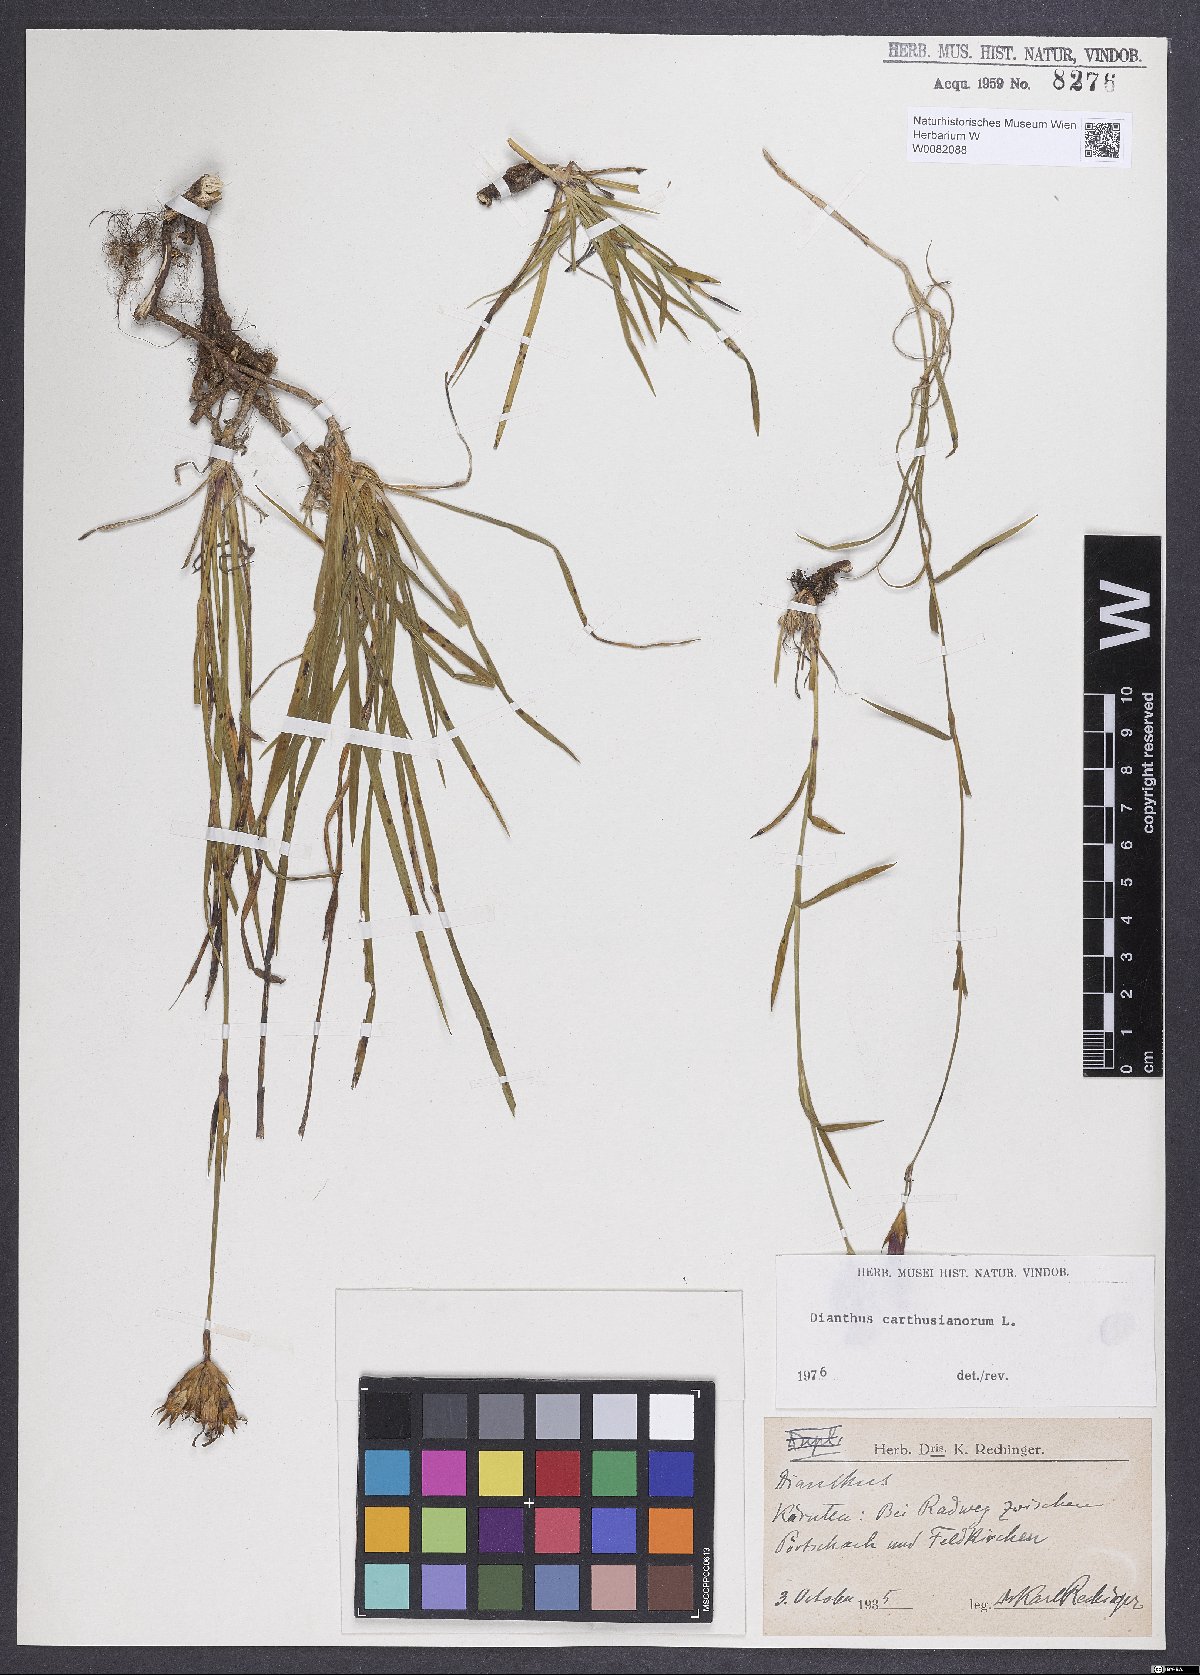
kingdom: Plantae
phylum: Tracheophyta
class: Magnoliopsida
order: Caryophyllales
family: Caryophyllaceae
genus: Dianthus
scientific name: Dianthus carthusianorum
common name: Carthusian pink
